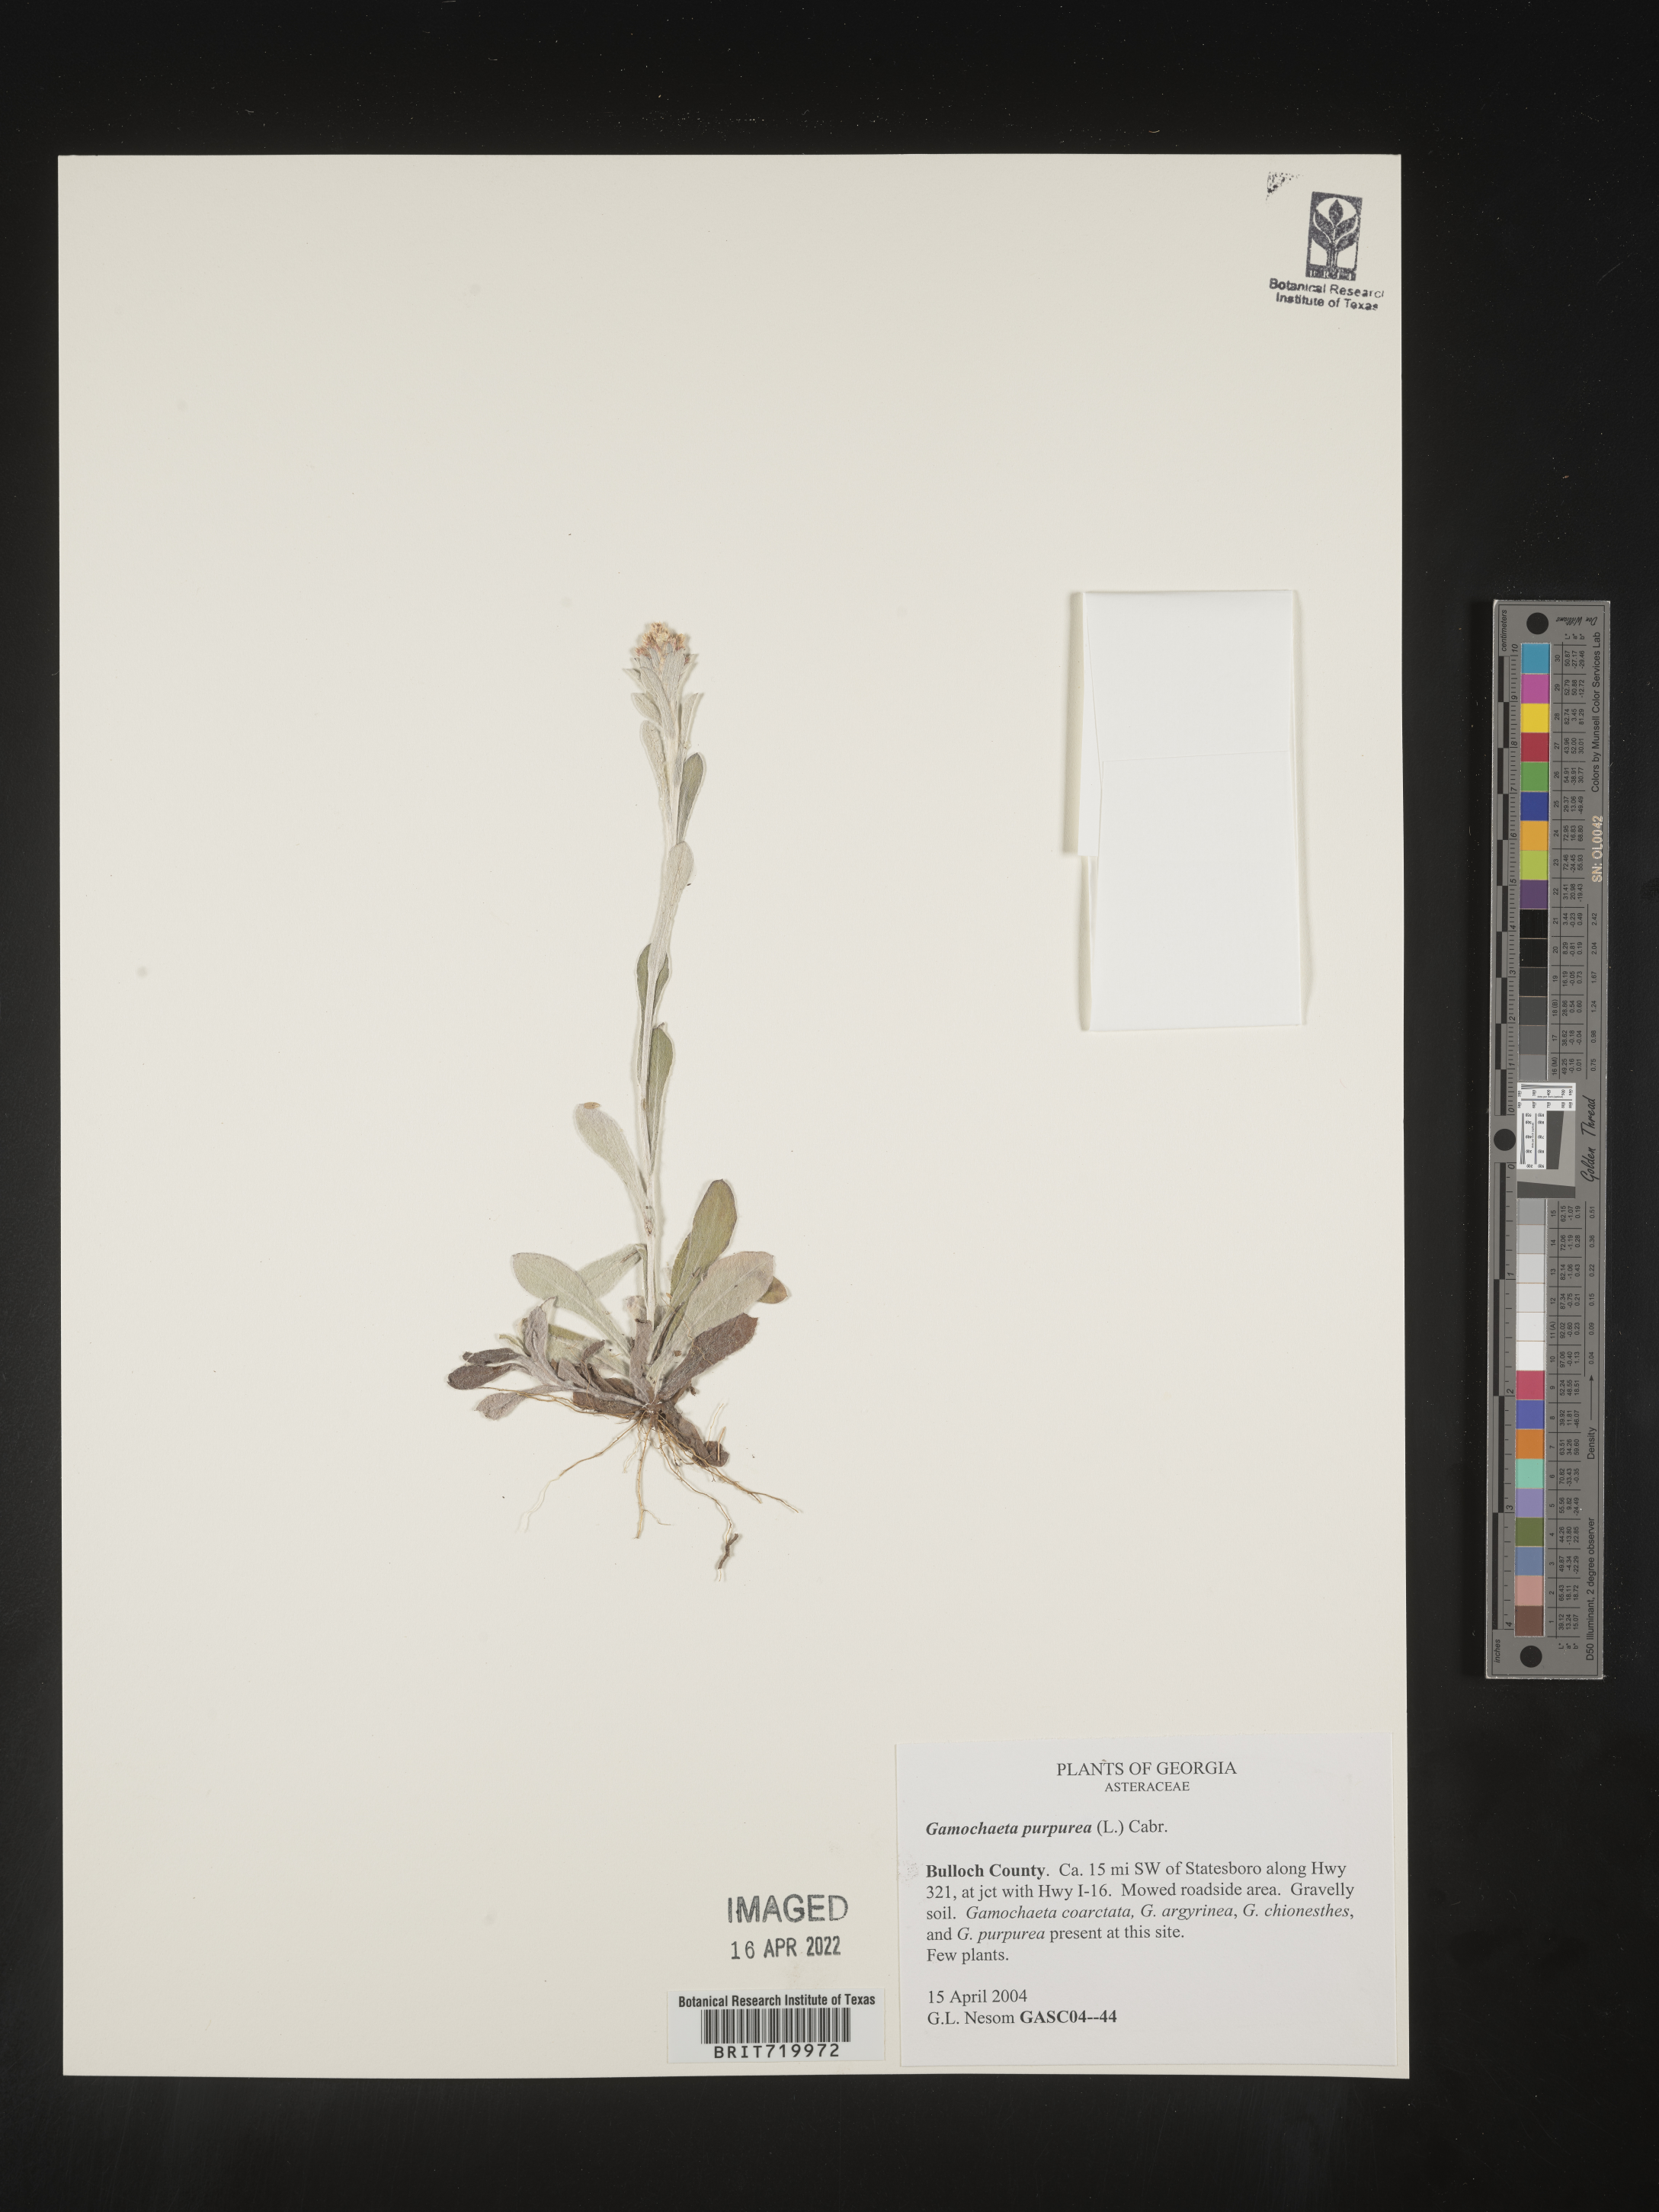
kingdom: Plantae
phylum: Tracheophyta
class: Magnoliopsida
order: Asterales
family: Asteraceae
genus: Gamochaeta
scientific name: Gamochaeta purpurea
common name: Purple cudweed
